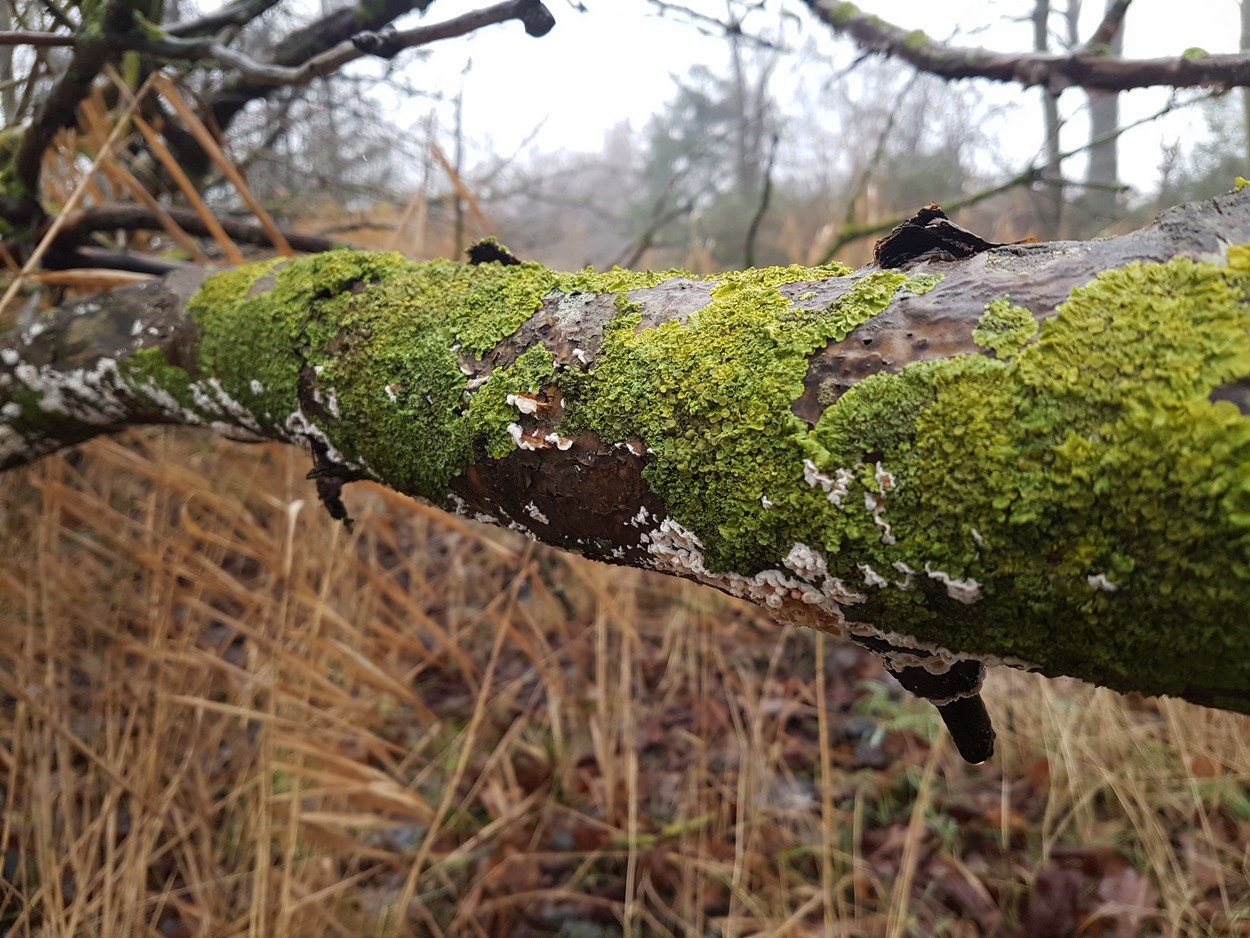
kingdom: Fungi
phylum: Basidiomycota
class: Agaricomycetes
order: Agaricales
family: Physalacriaceae
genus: Cylindrobasidium
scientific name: Cylindrobasidium evolvens
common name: sprækkehinde
